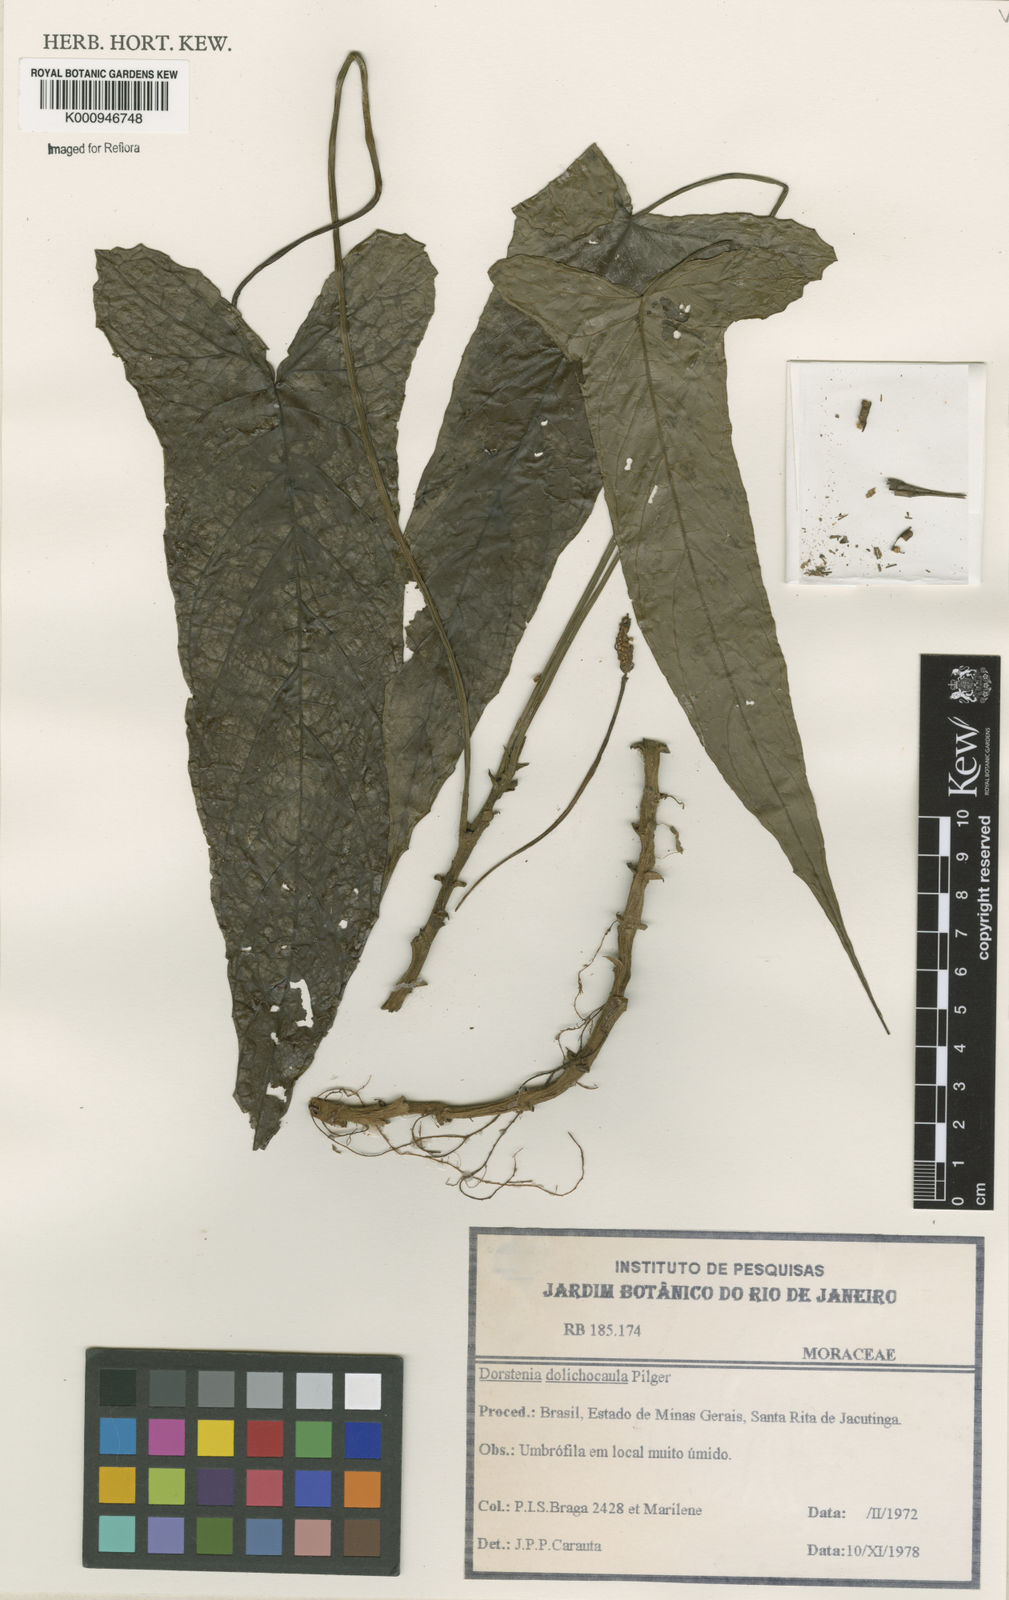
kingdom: Plantae
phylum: Tracheophyta
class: Magnoliopsida
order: Rosales
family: Moraceae
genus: Dorstenia
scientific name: Dorstenia ramosa
